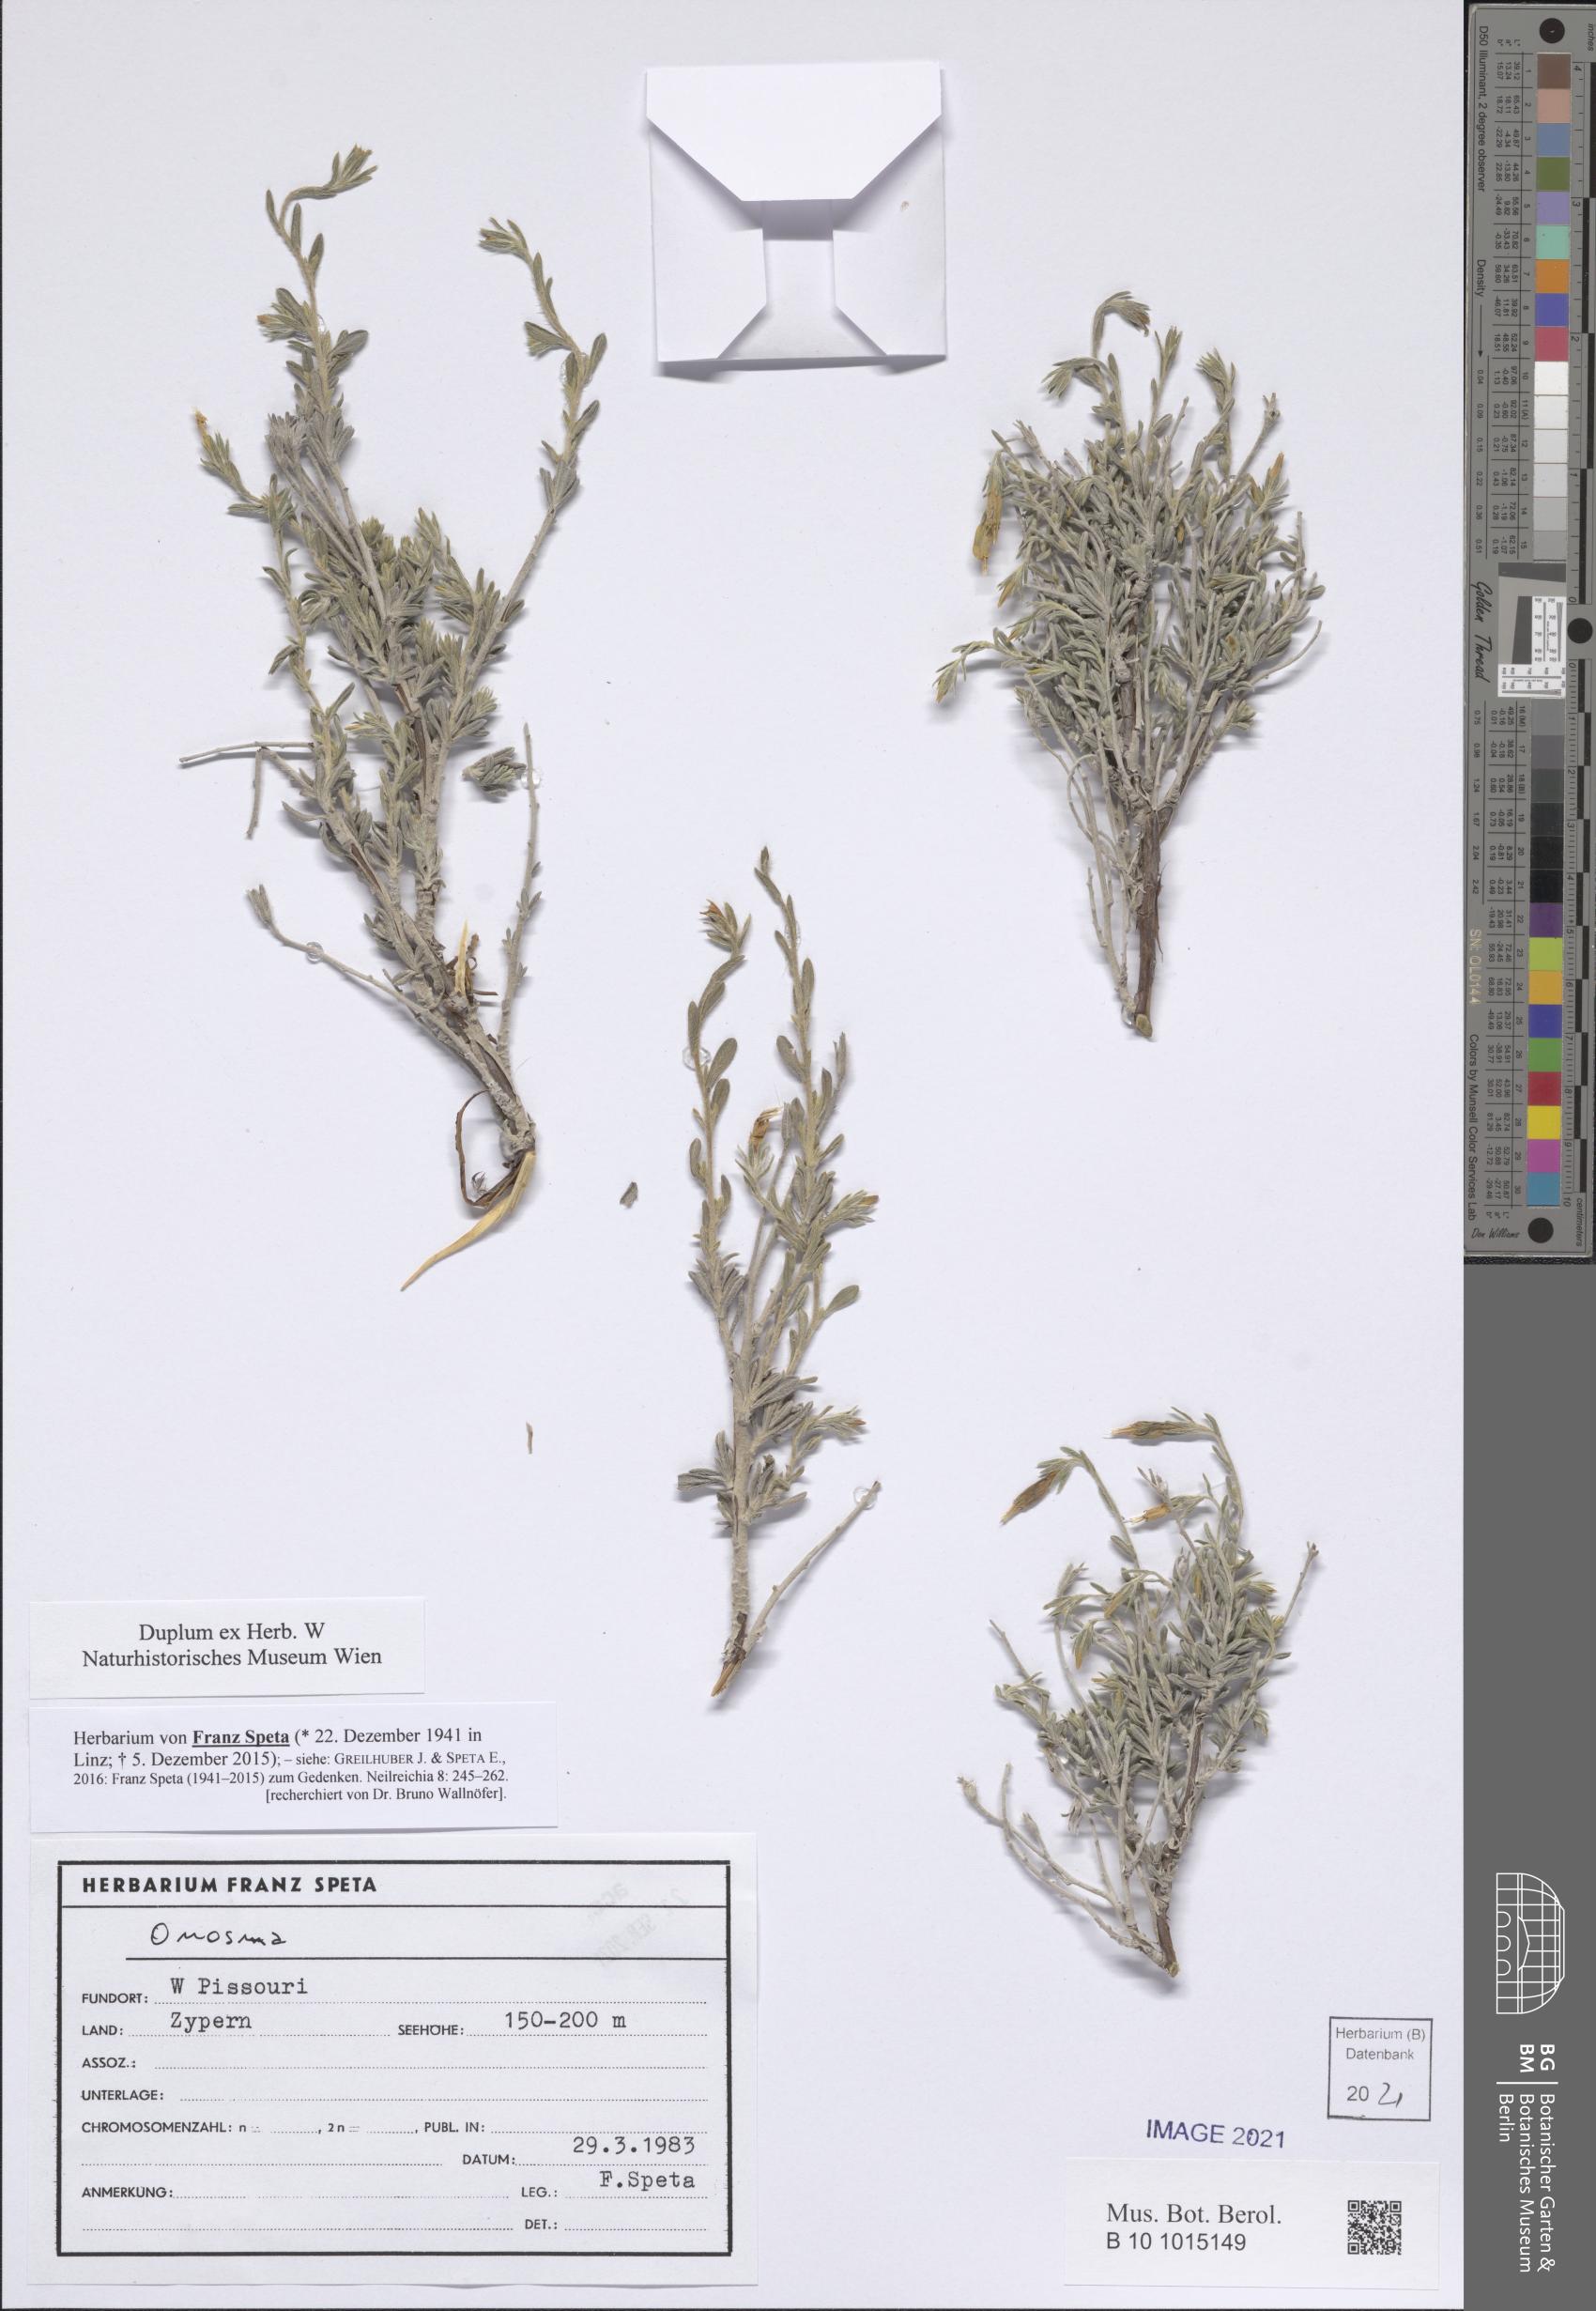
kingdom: Plantae
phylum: Tracheophyta
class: Magnoliopsida
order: Boraginales
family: Boraginaceae
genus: Onosma
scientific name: Onosma
